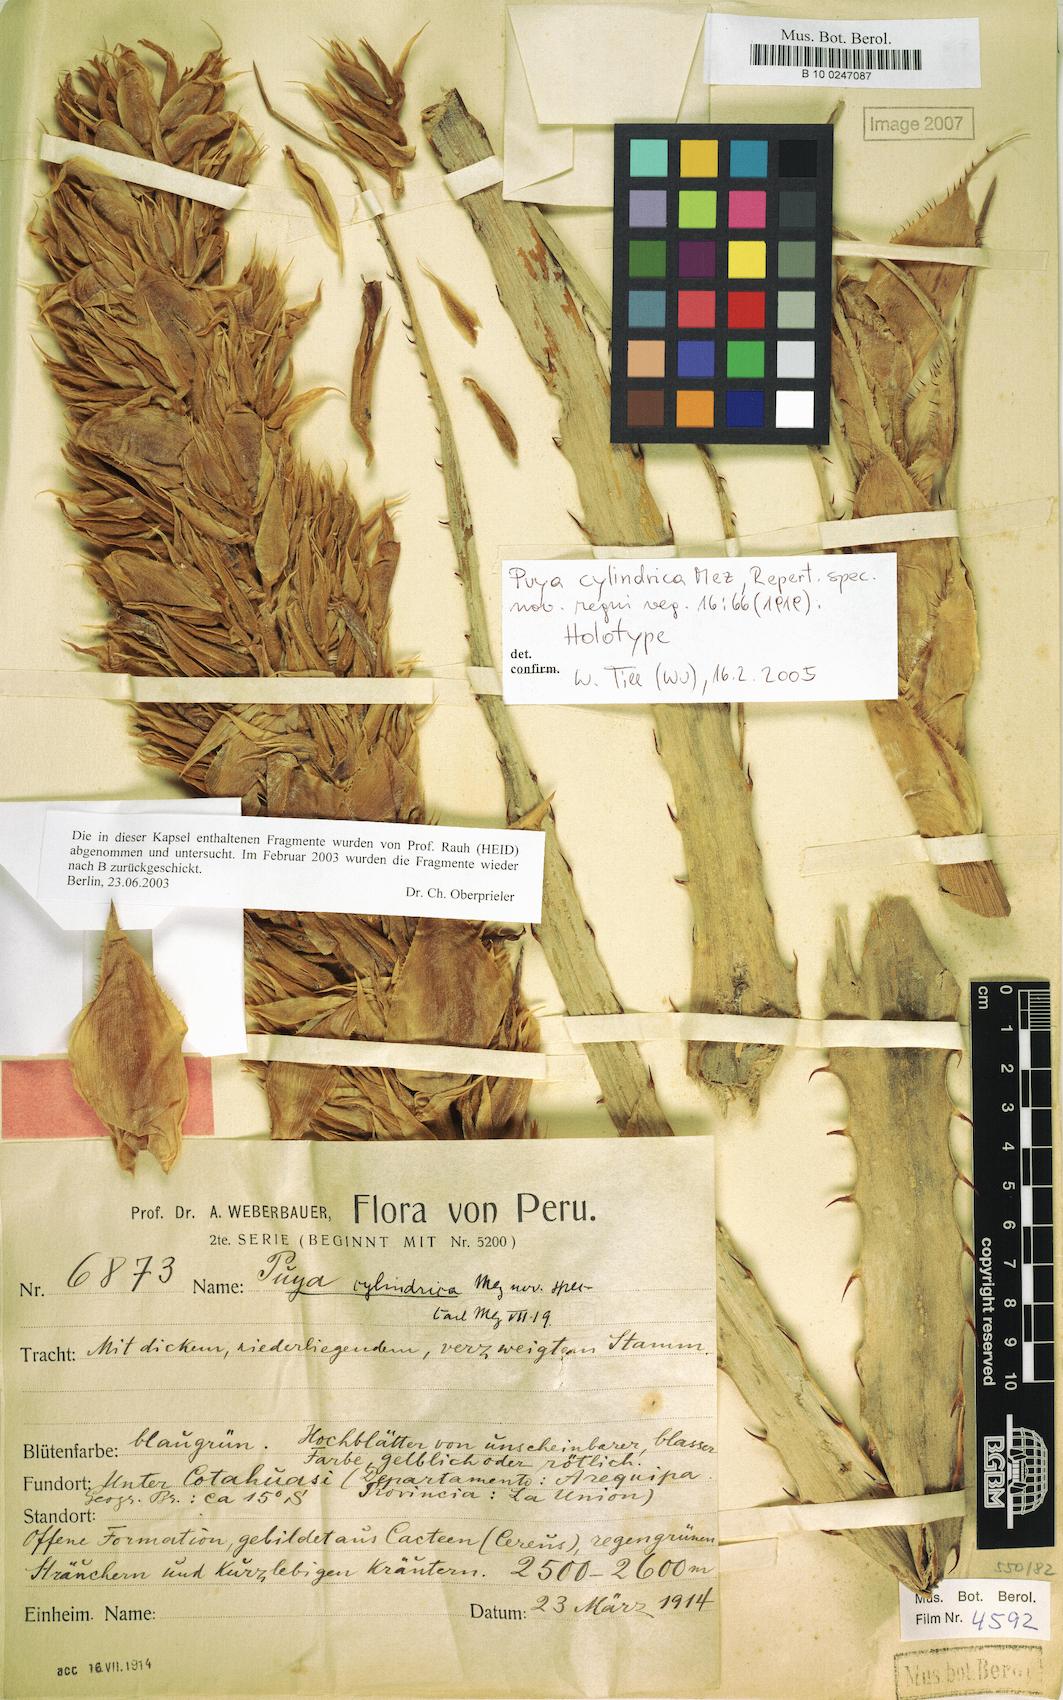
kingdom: Plantae
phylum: Tracheophyta
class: Liliopsida
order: Poales
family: Bromeliaceae
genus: Puya
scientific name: Puya cylindrica
